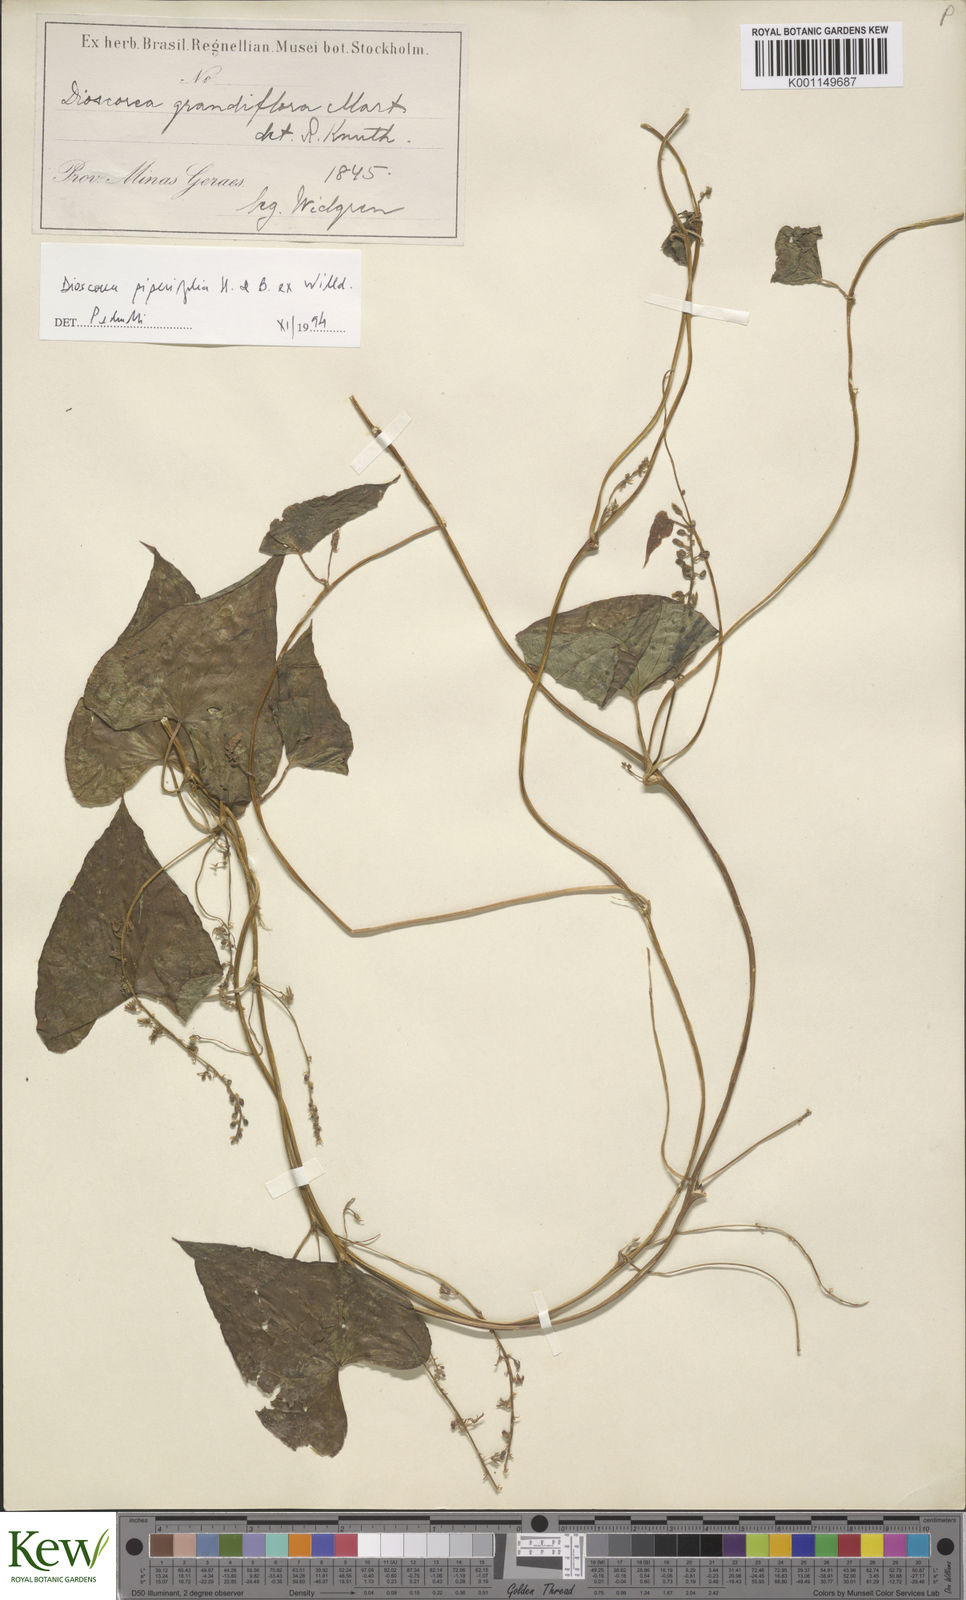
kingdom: Plantae
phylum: Tracheophyta
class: Liliopsida
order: Dioscoreales
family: Dioscoreaceae
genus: Dioscorea
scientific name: Dioscorea grandiflora
